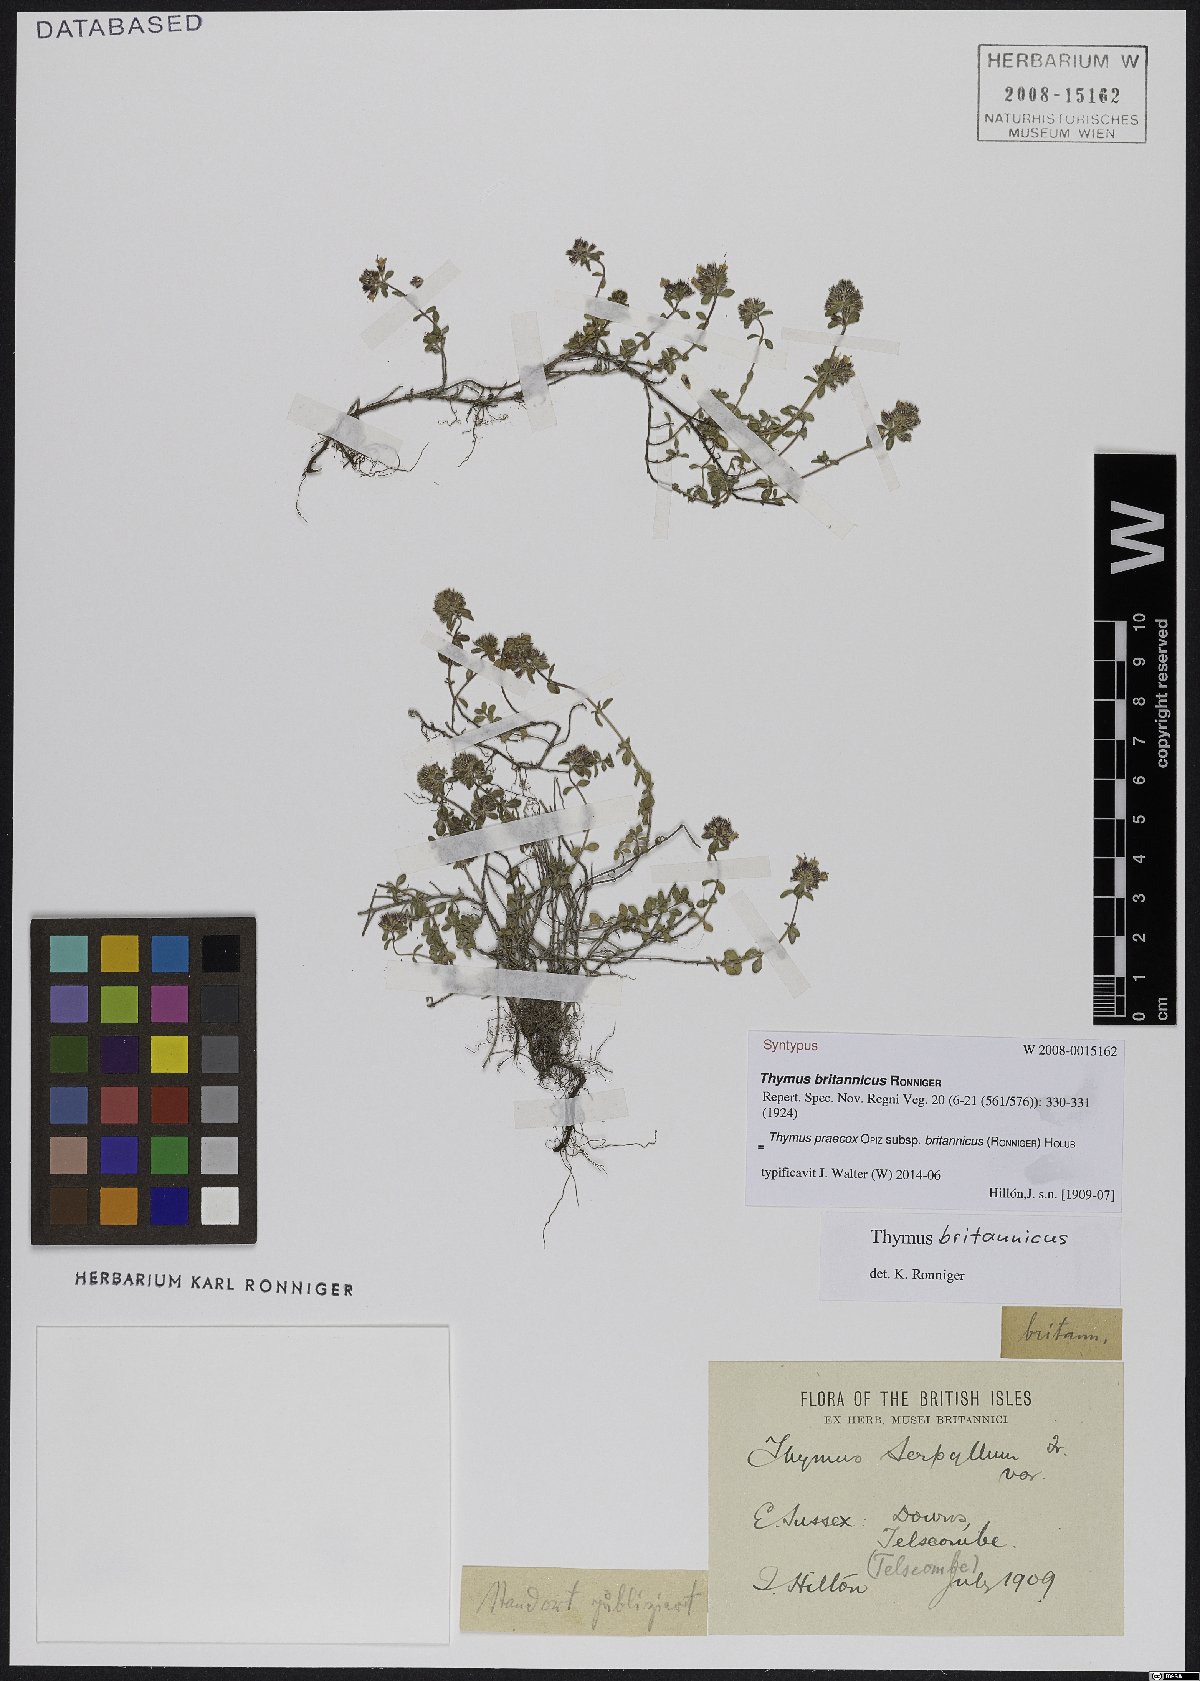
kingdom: Plantae
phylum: Tracheophyta
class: Magnoliopsida
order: Lamiales
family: Lamiaceae
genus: Thymus
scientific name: Thymus praecox
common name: Wild thyme
